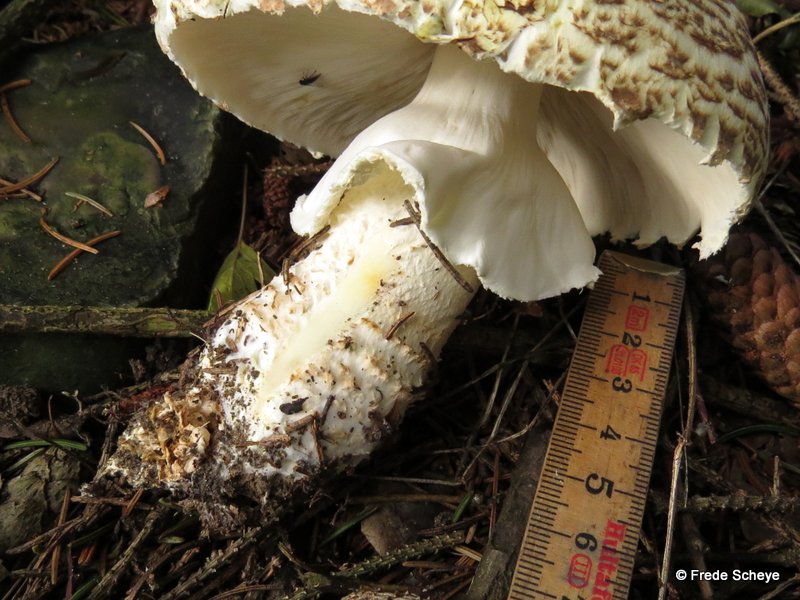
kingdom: Fungi
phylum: Basidiomycota
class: Agaricomycetes
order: Agaricales
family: Agaricaceae
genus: Agaricus
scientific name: Agaricus augustus
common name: prægtig champignon
